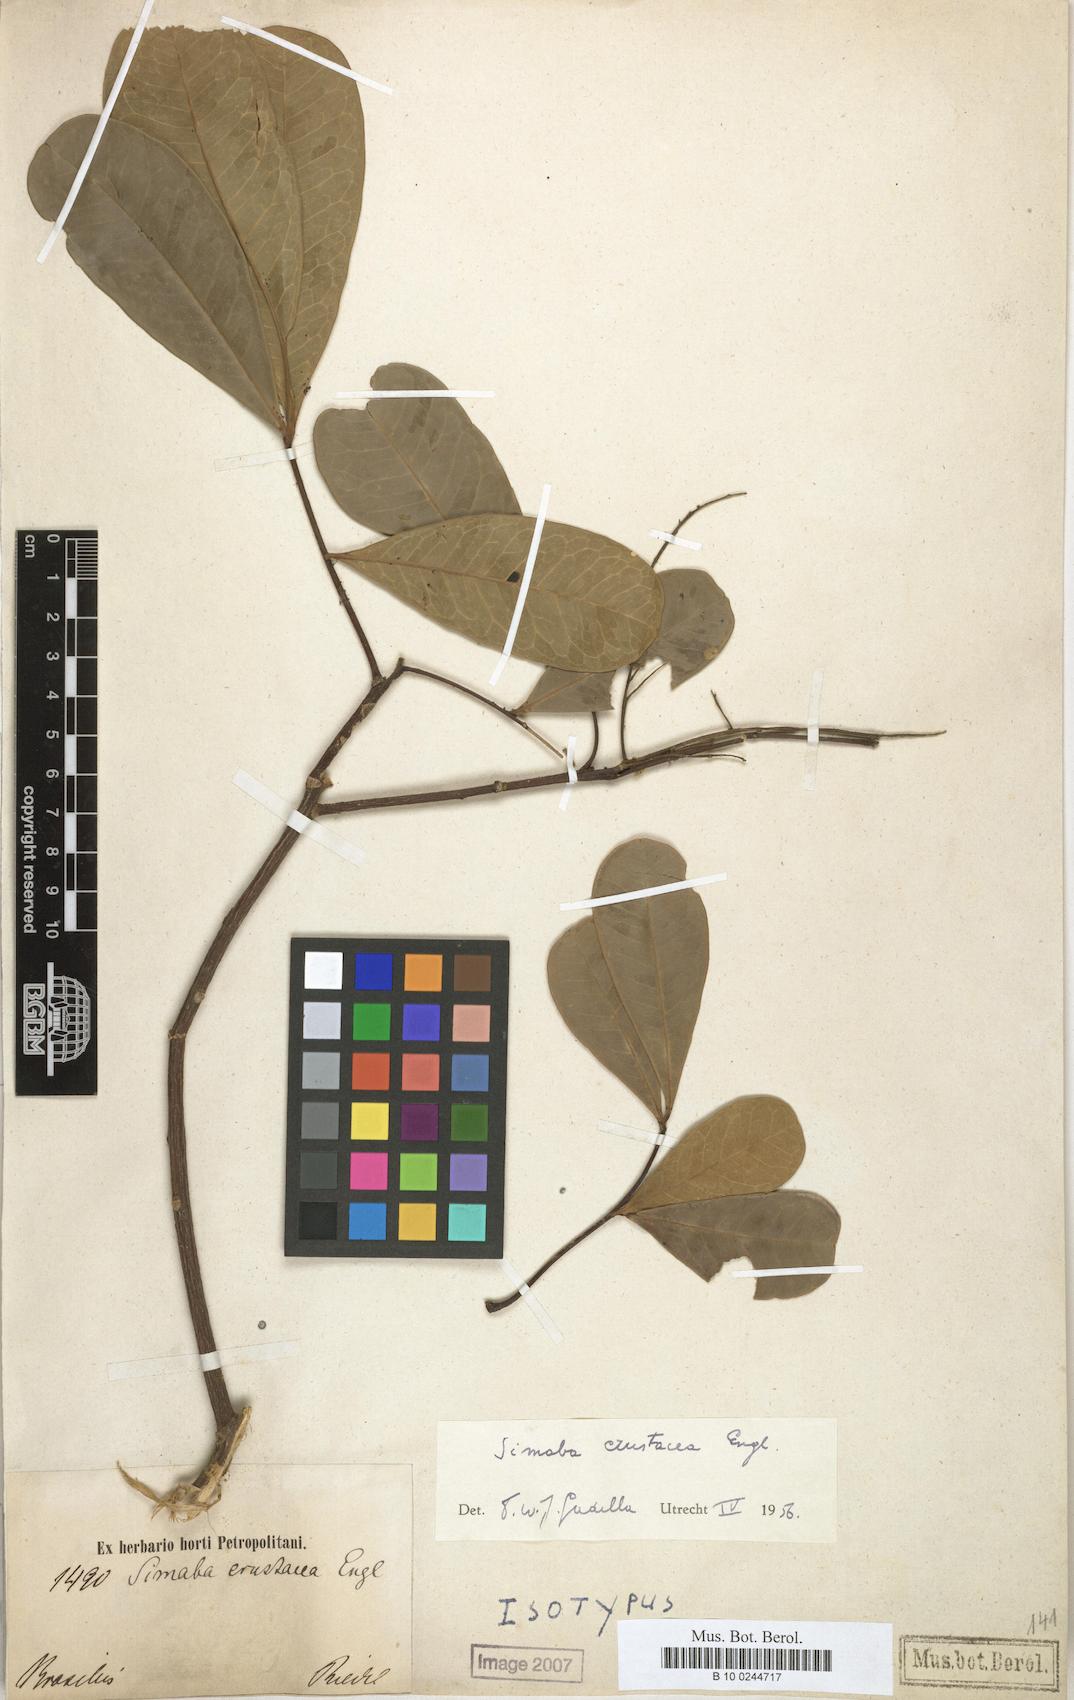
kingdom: Plantae
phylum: Tracheophyta
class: Magnoliopsida
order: Sapindales
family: Simaroubaceae
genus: Simaba
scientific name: Simaba guianensis
